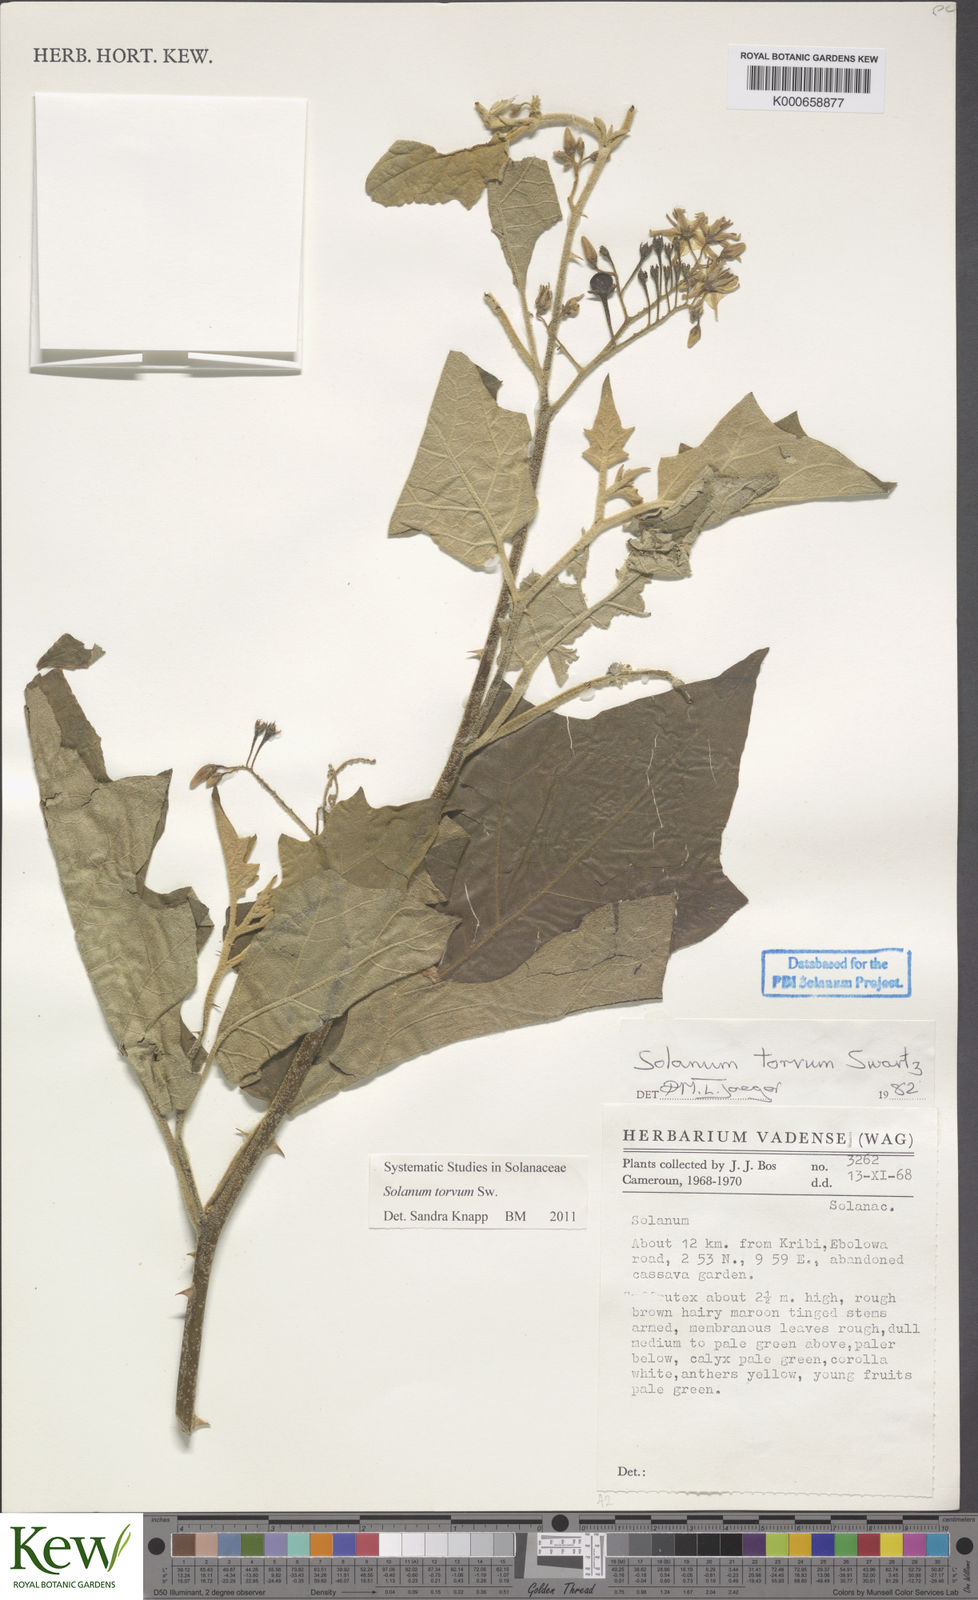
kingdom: Plantae
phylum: Tracheophyta
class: Magnoliopsida
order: Solanales
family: Solanaceae
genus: Solanum
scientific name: Solanum torvum
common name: Turkey berry
